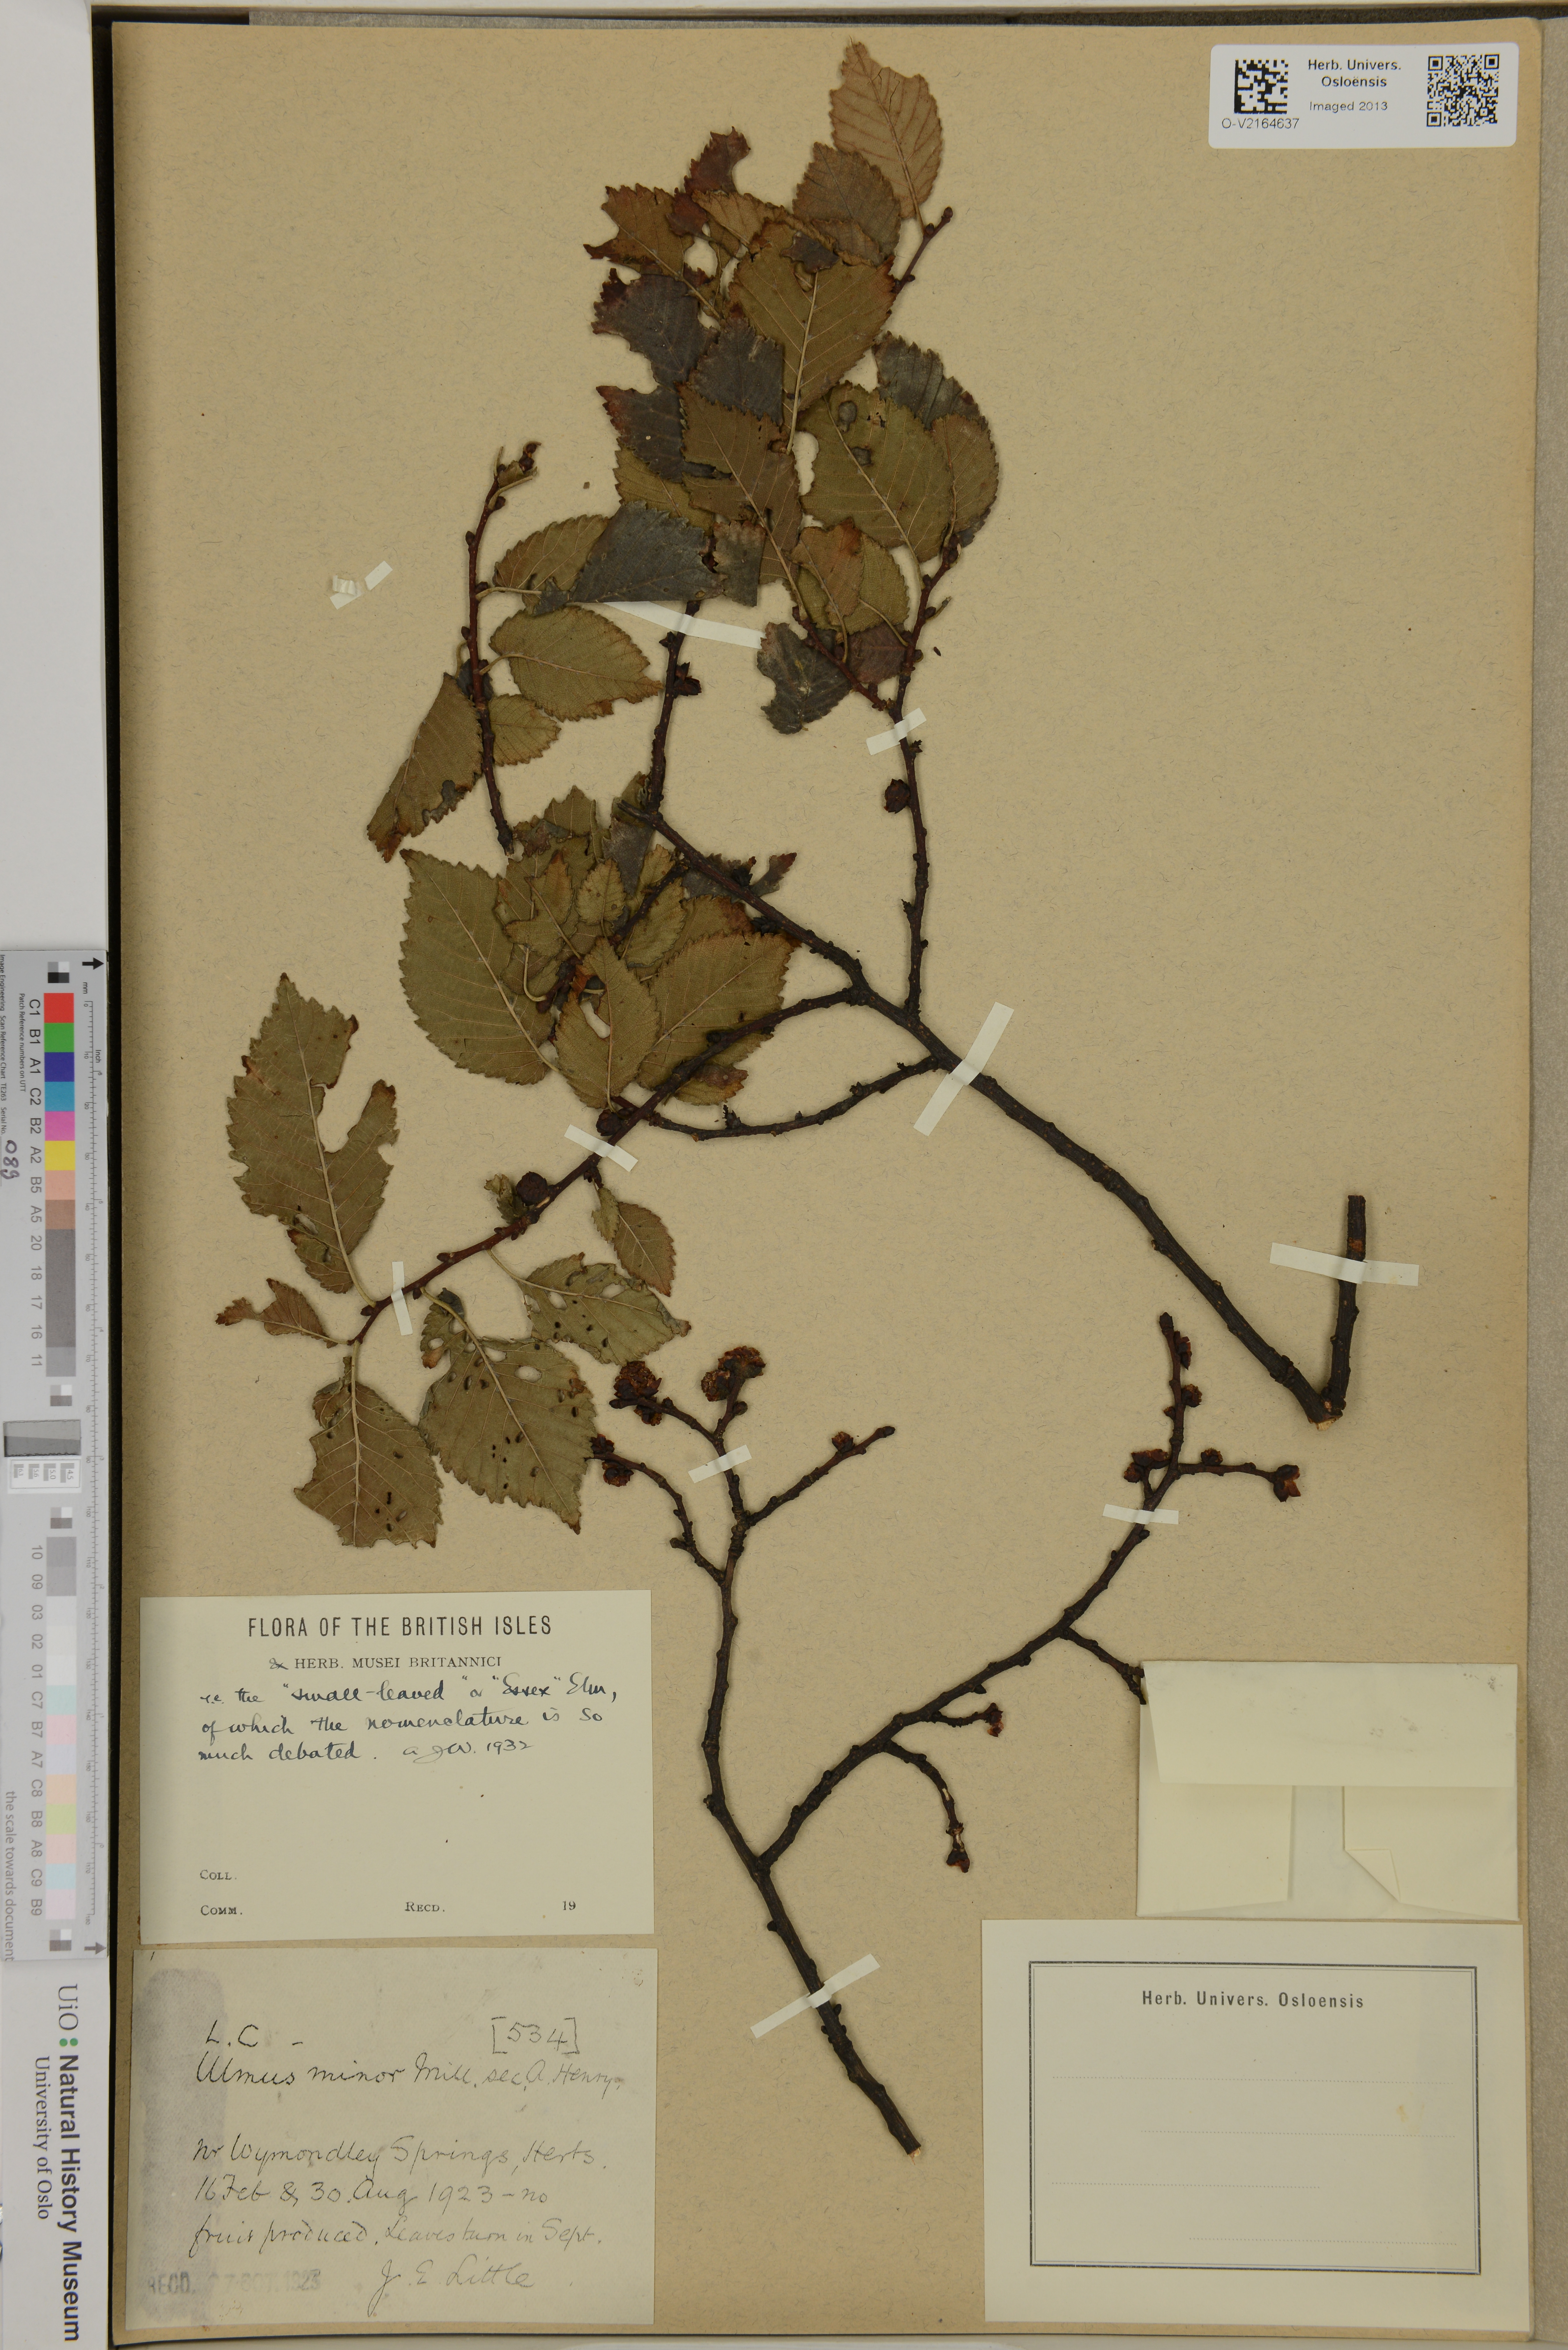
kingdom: Plantae
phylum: Tracheophyta
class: Magnoliopsida
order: Rosales
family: Ulmaceae
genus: Ulmus
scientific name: Ulmus minor
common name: Small-leaved elm
